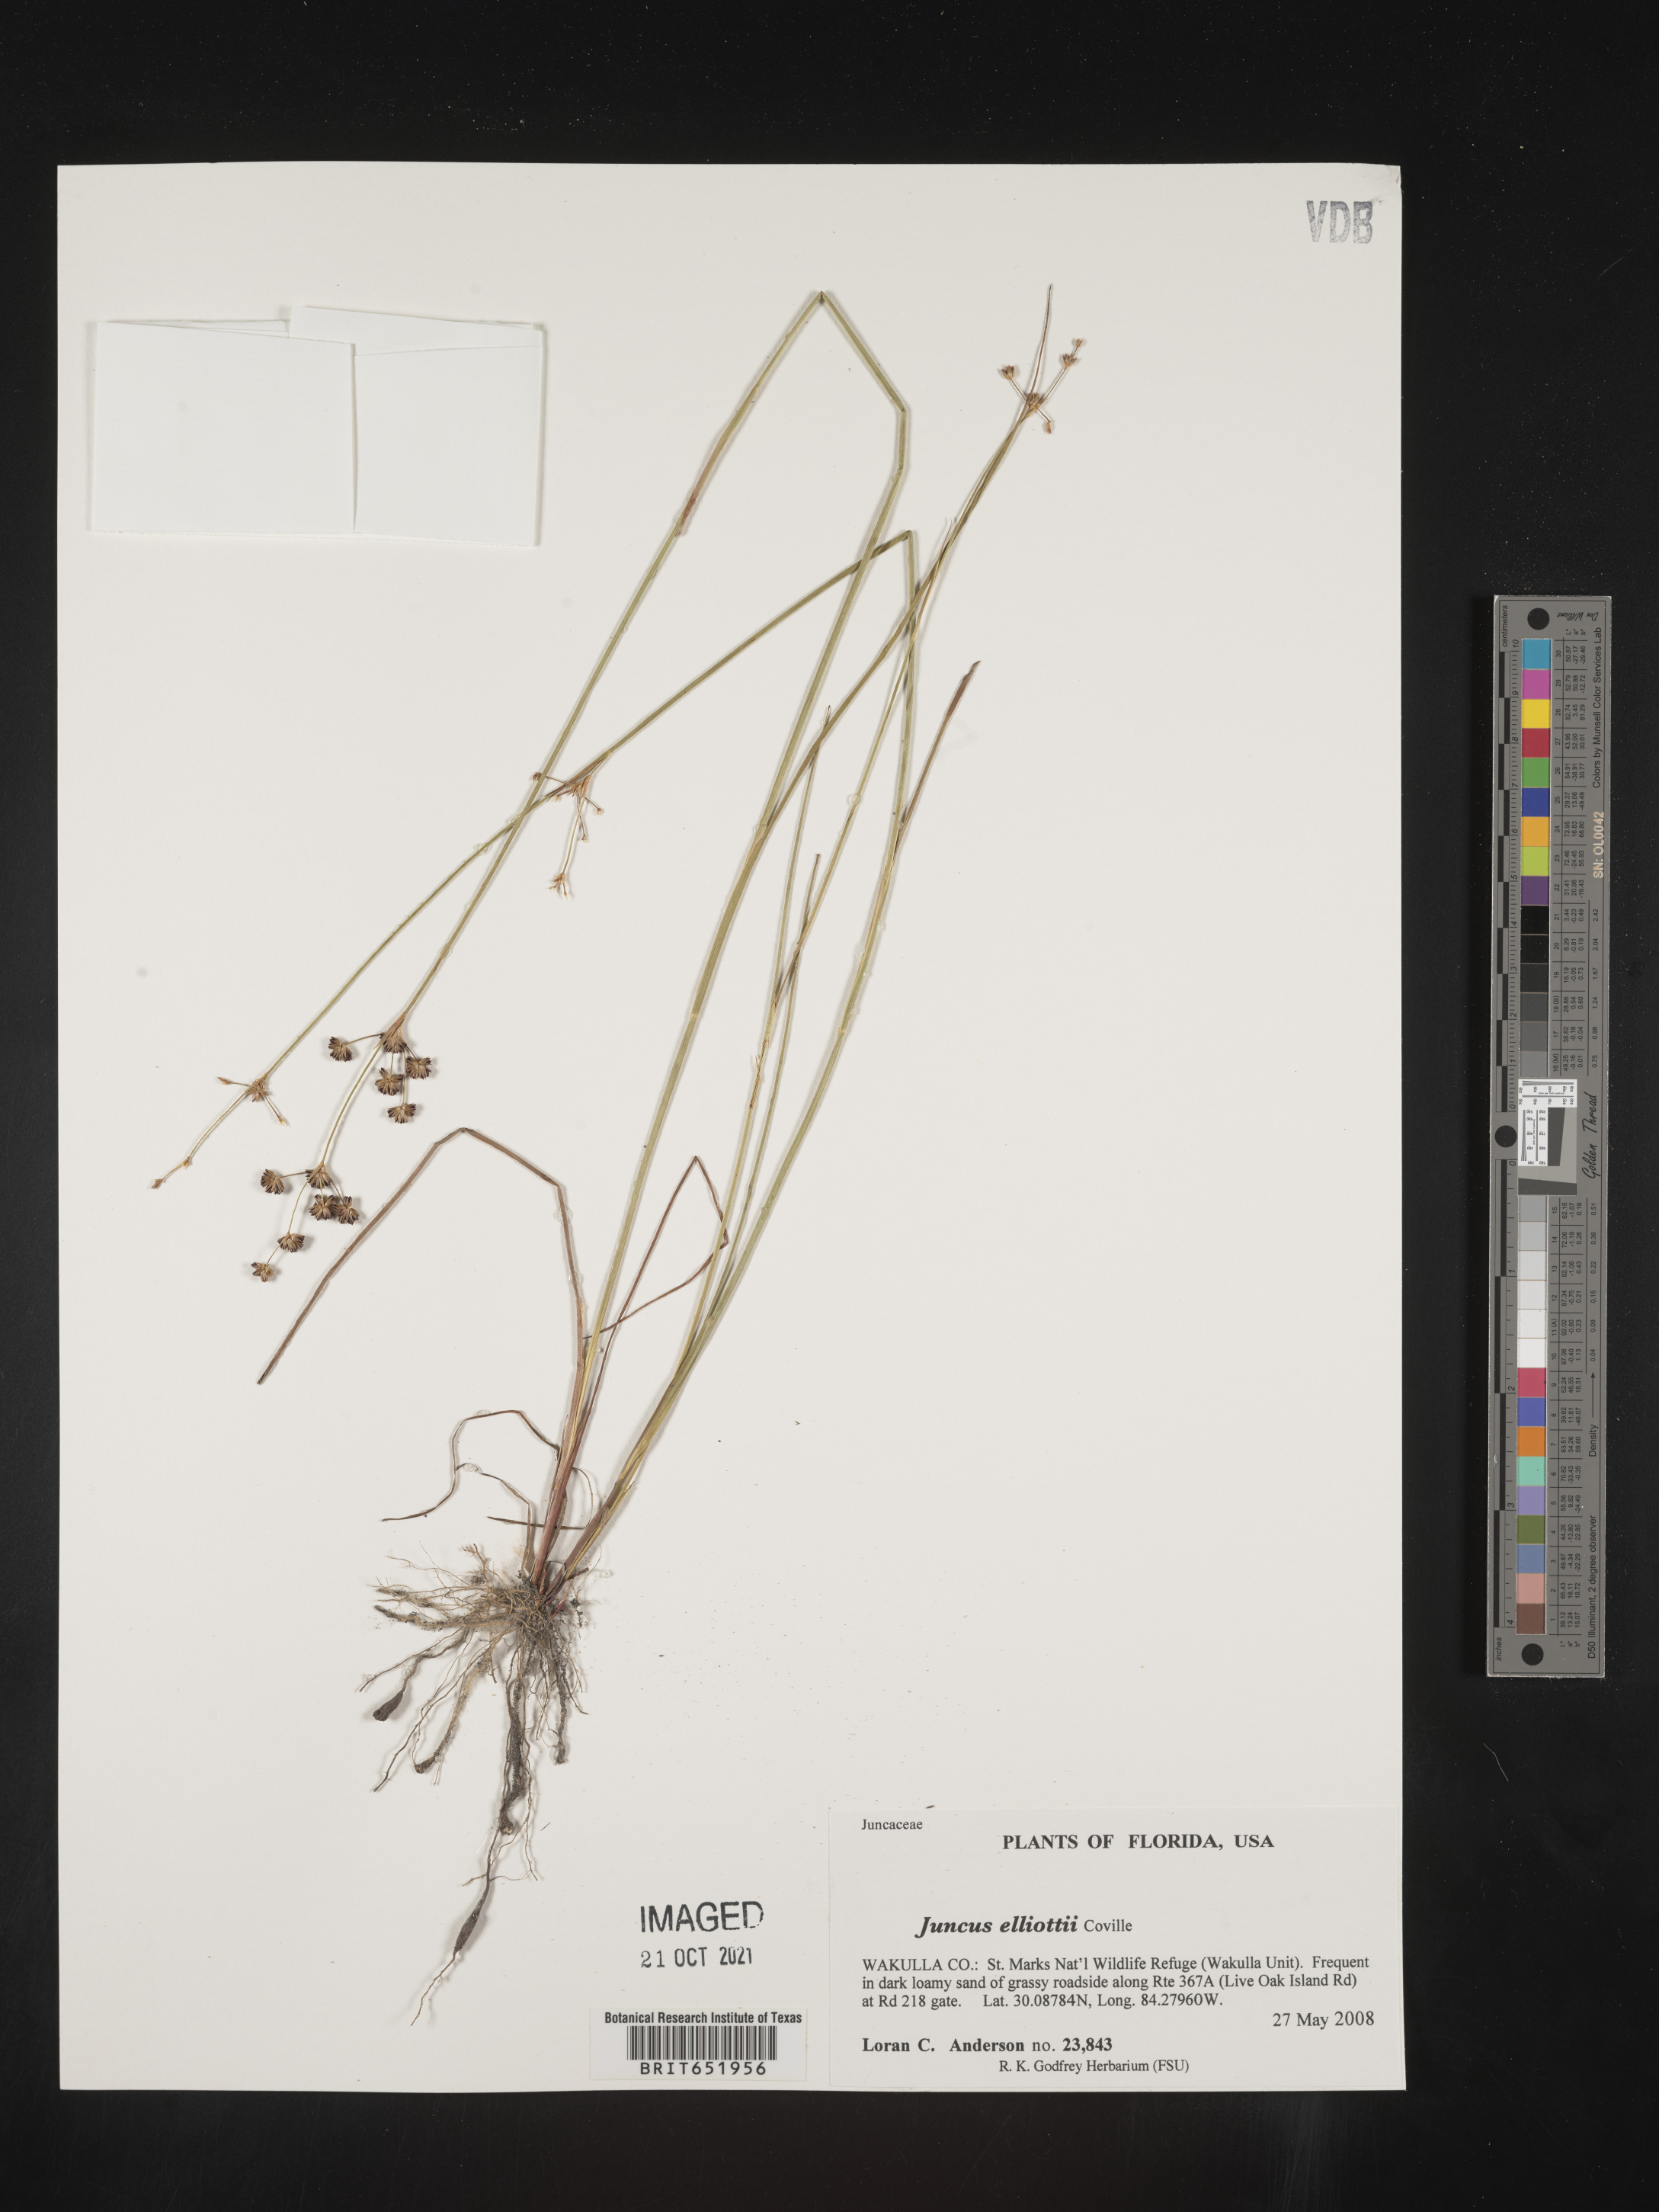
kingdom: Plantae
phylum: Tracheophyta
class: Liliopsida
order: Poales
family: Juncaceae
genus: Juncus
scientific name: Juncus elliottii
